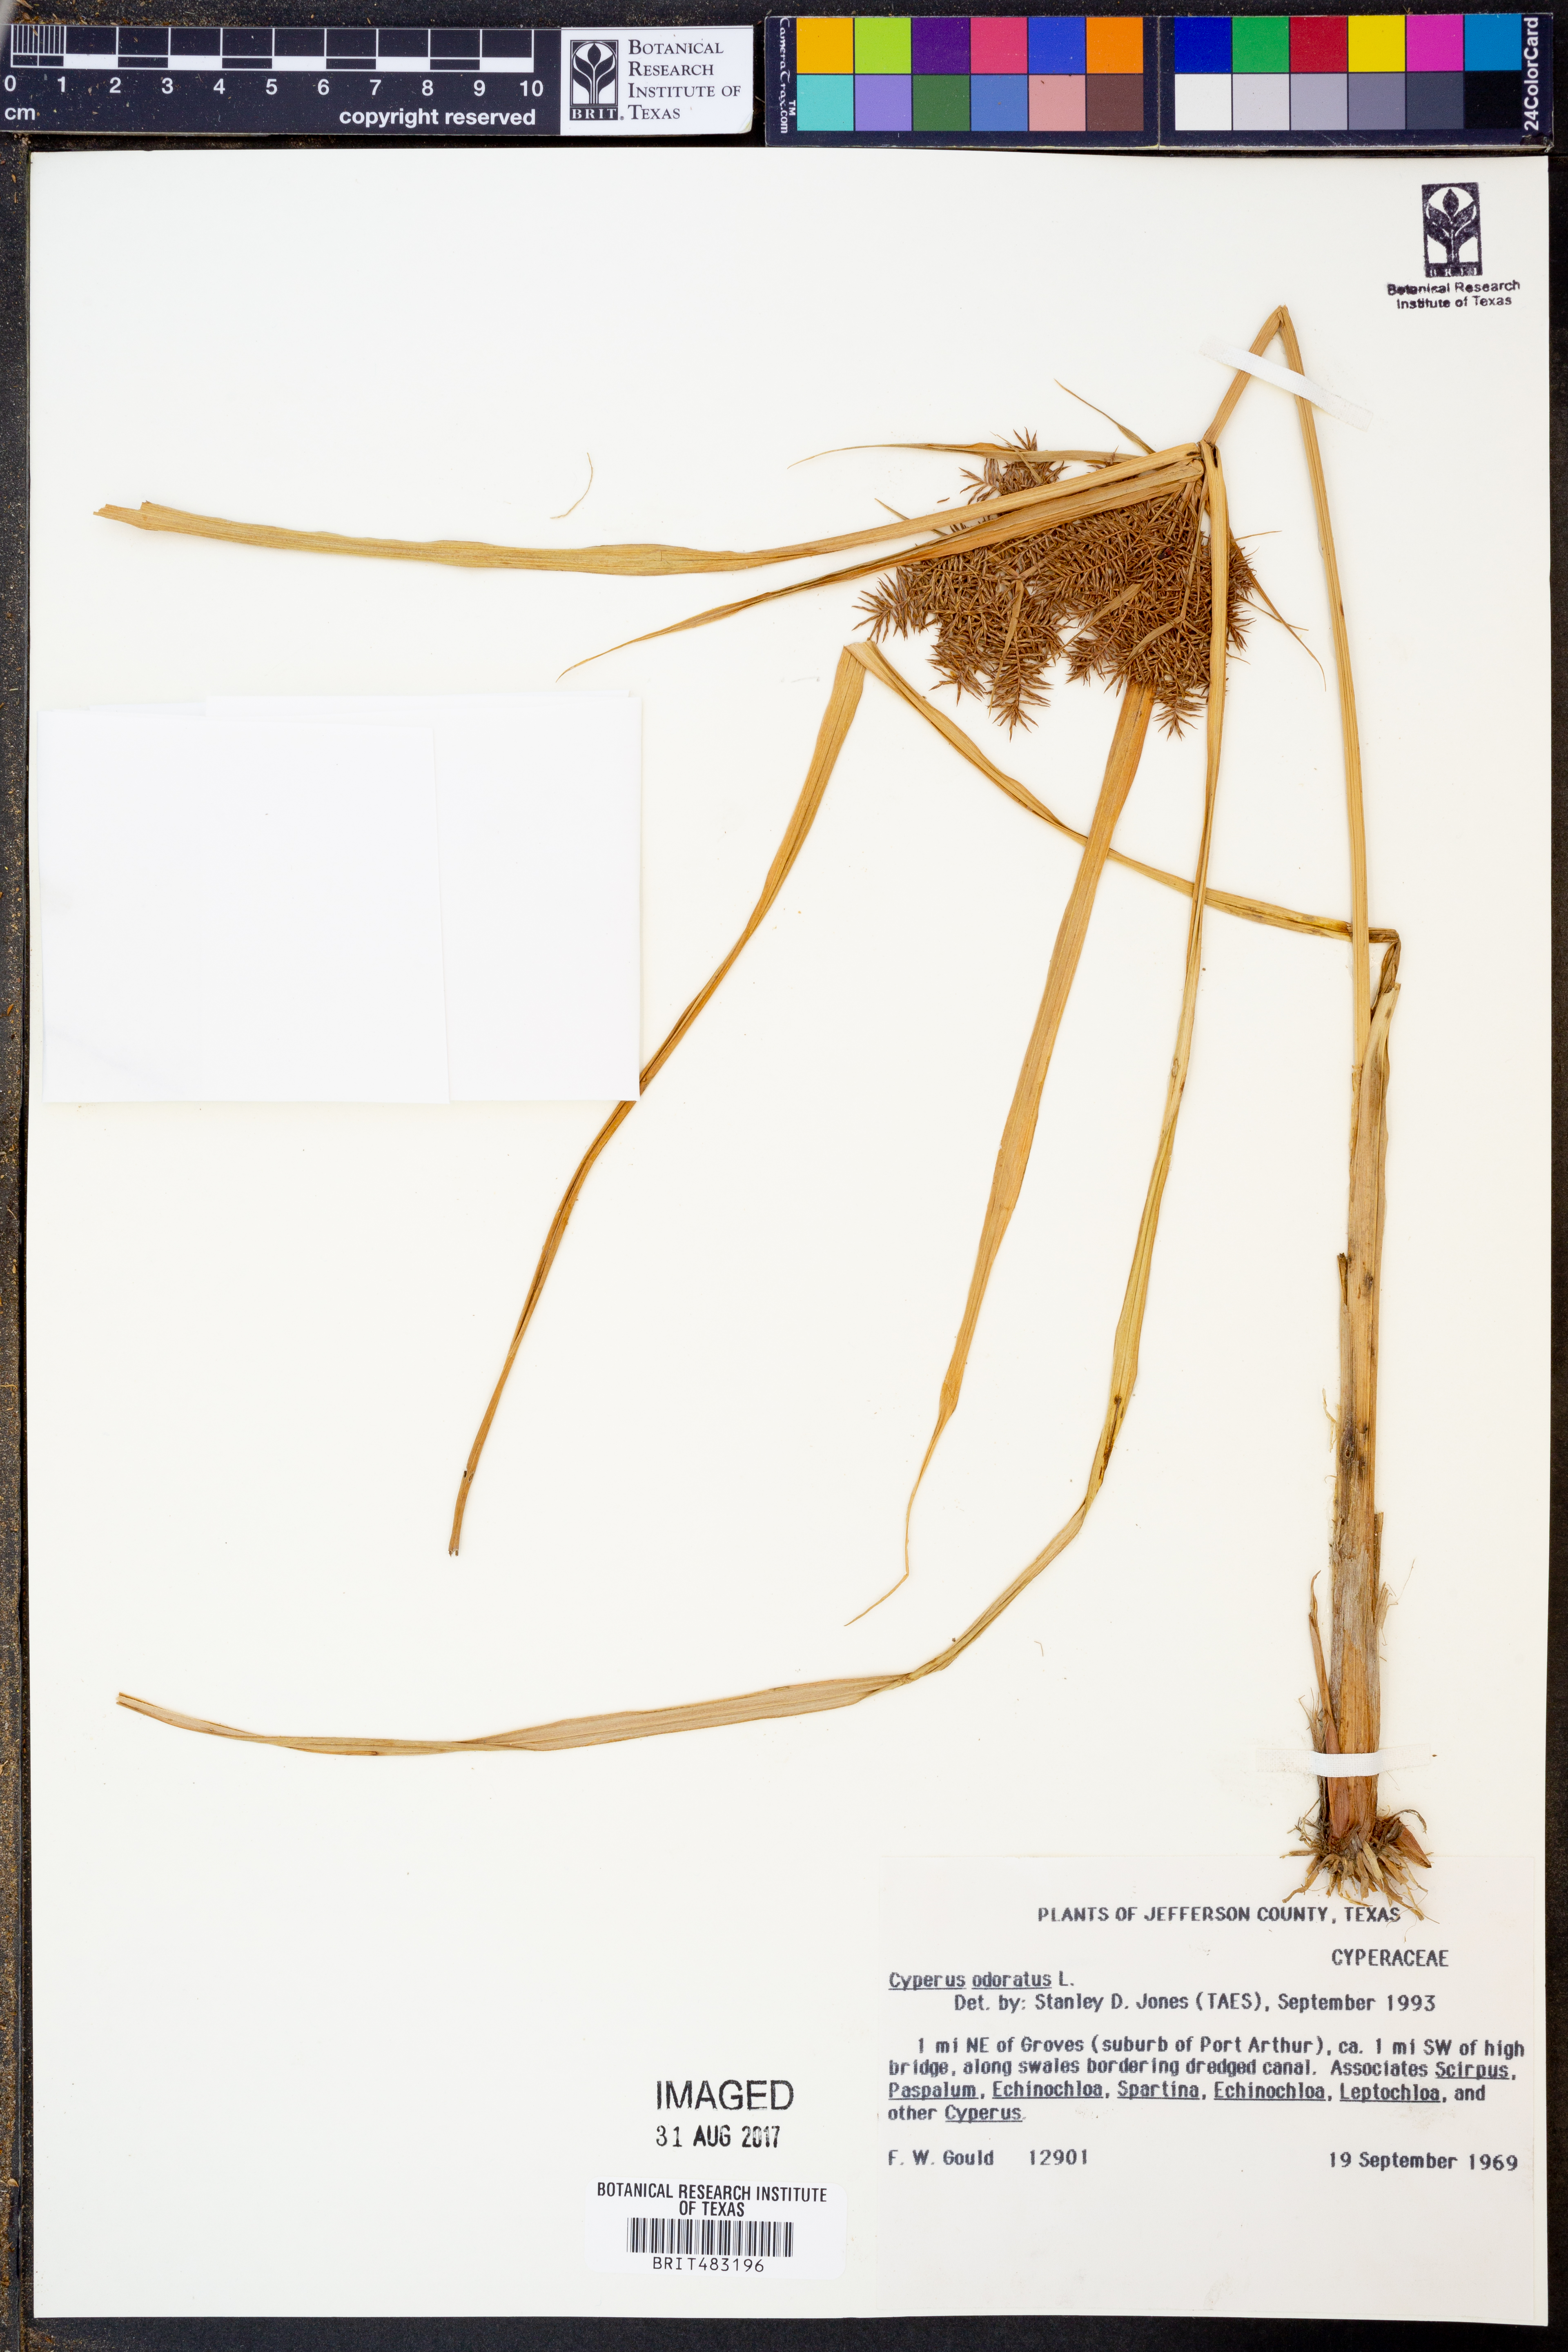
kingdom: Plantae
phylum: Tracheophyta
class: Liliopsida
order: Poales
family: Cyperaceae
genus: Cyperus
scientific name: Cyperus odoratus
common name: Fragrant flatsedge
